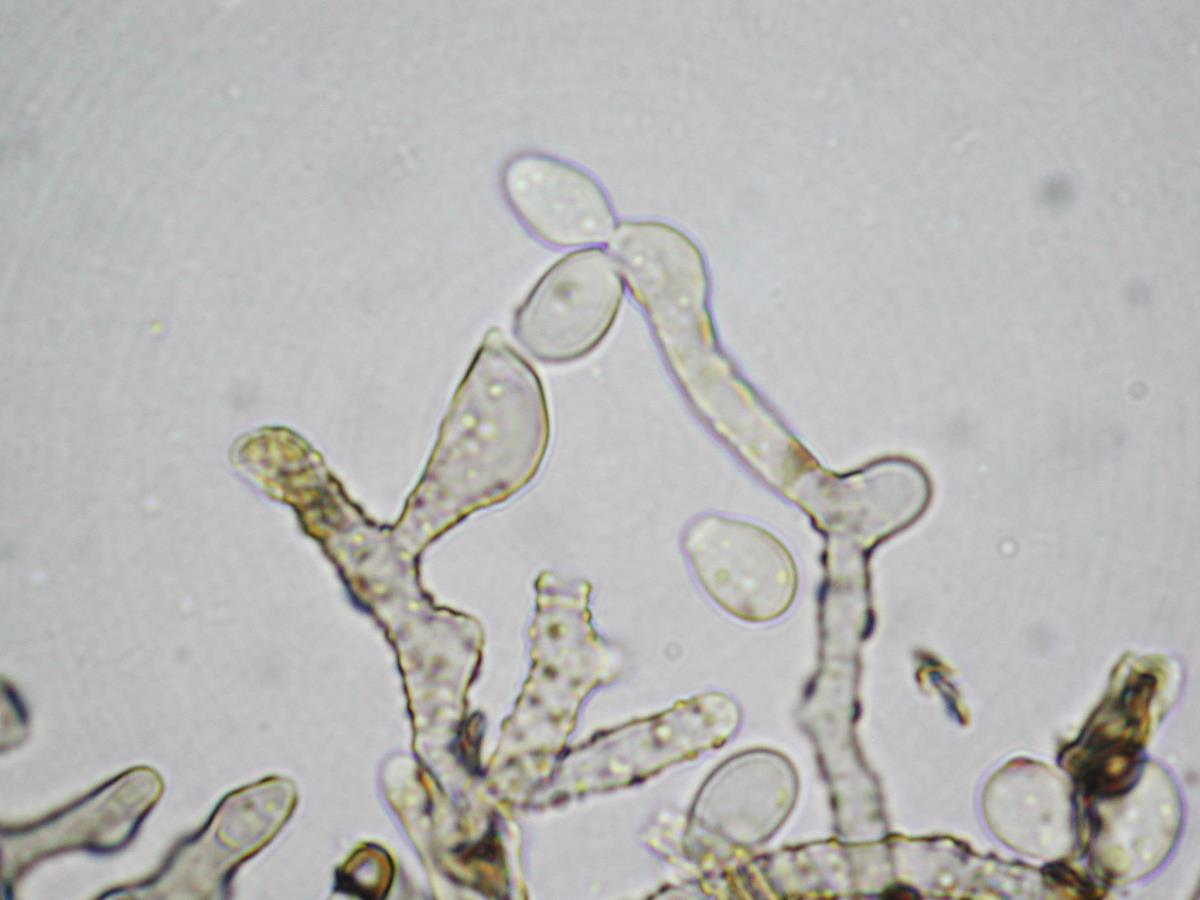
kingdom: Fungi
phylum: Ascomycota
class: Sordariomycetes
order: Xylariales
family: Hypoxylaceae
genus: Daldinia
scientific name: Daldinia
